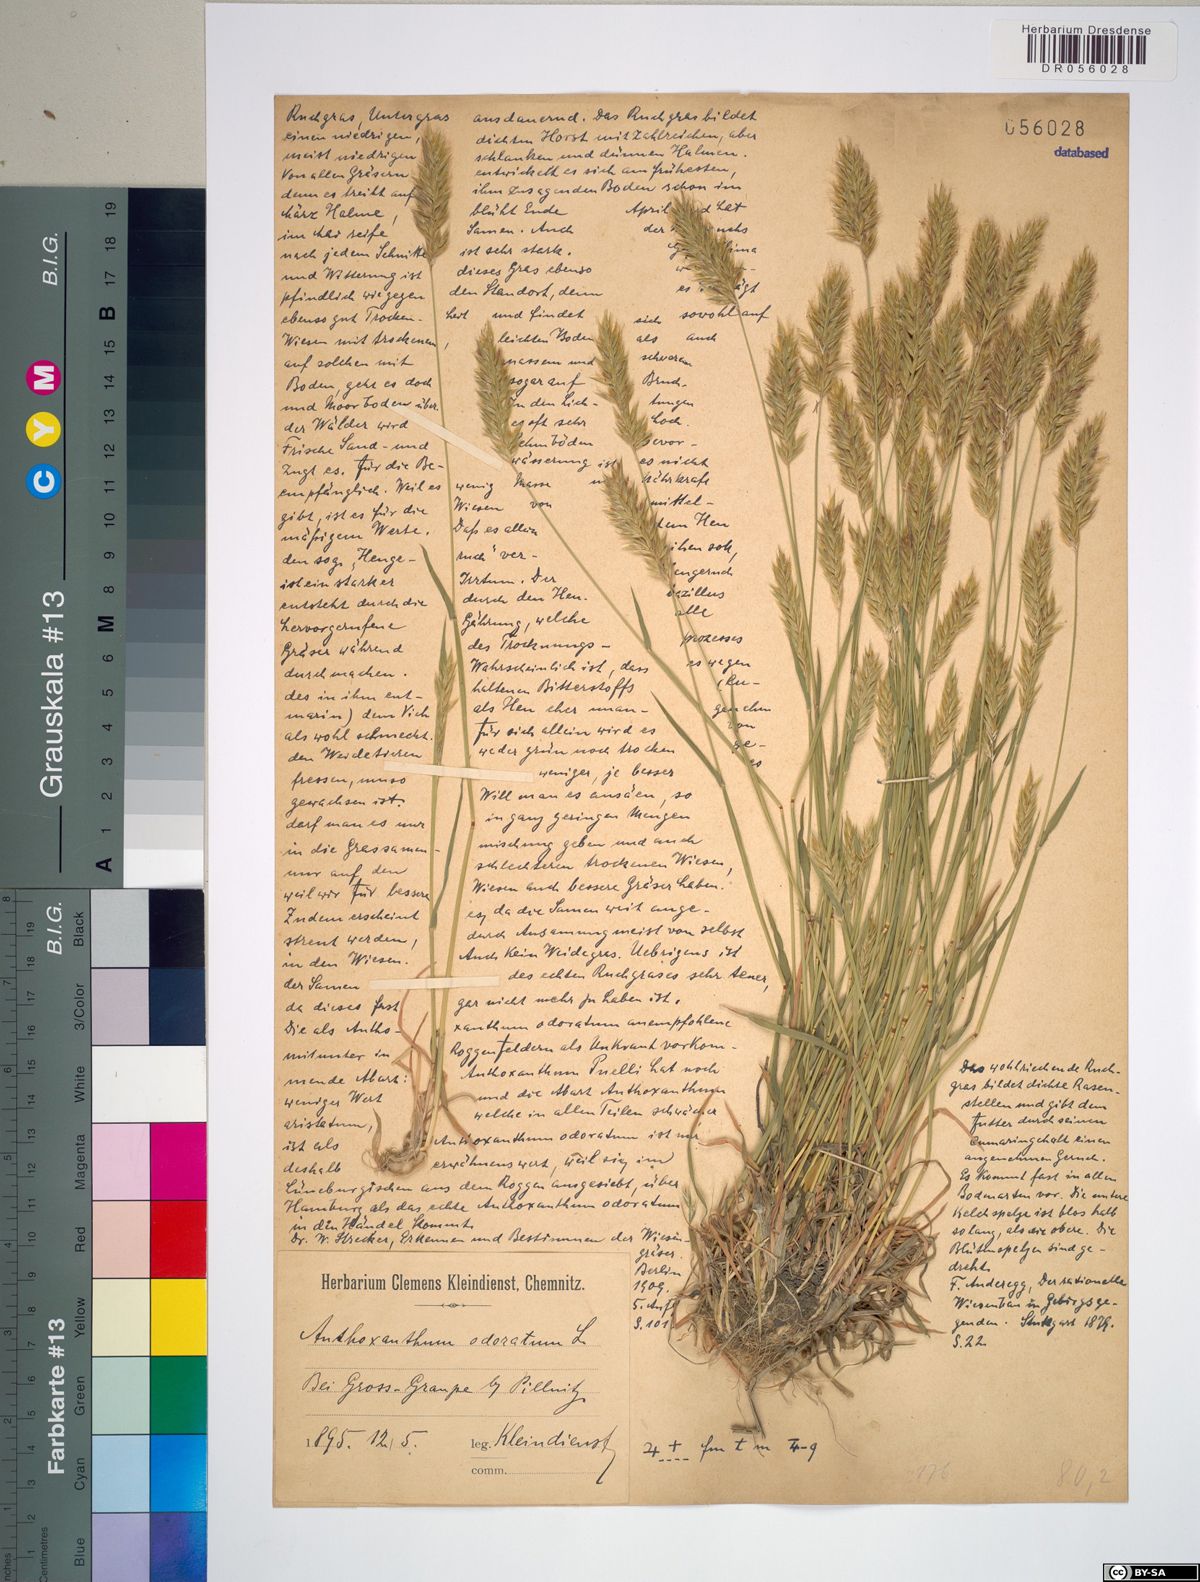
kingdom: Plantae
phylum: Tracheophyta
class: Liliopsida
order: Poales
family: Poaceae
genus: Anthoxanthum
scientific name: Anthoxanthum odoratum
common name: Sweet vernalgrass
